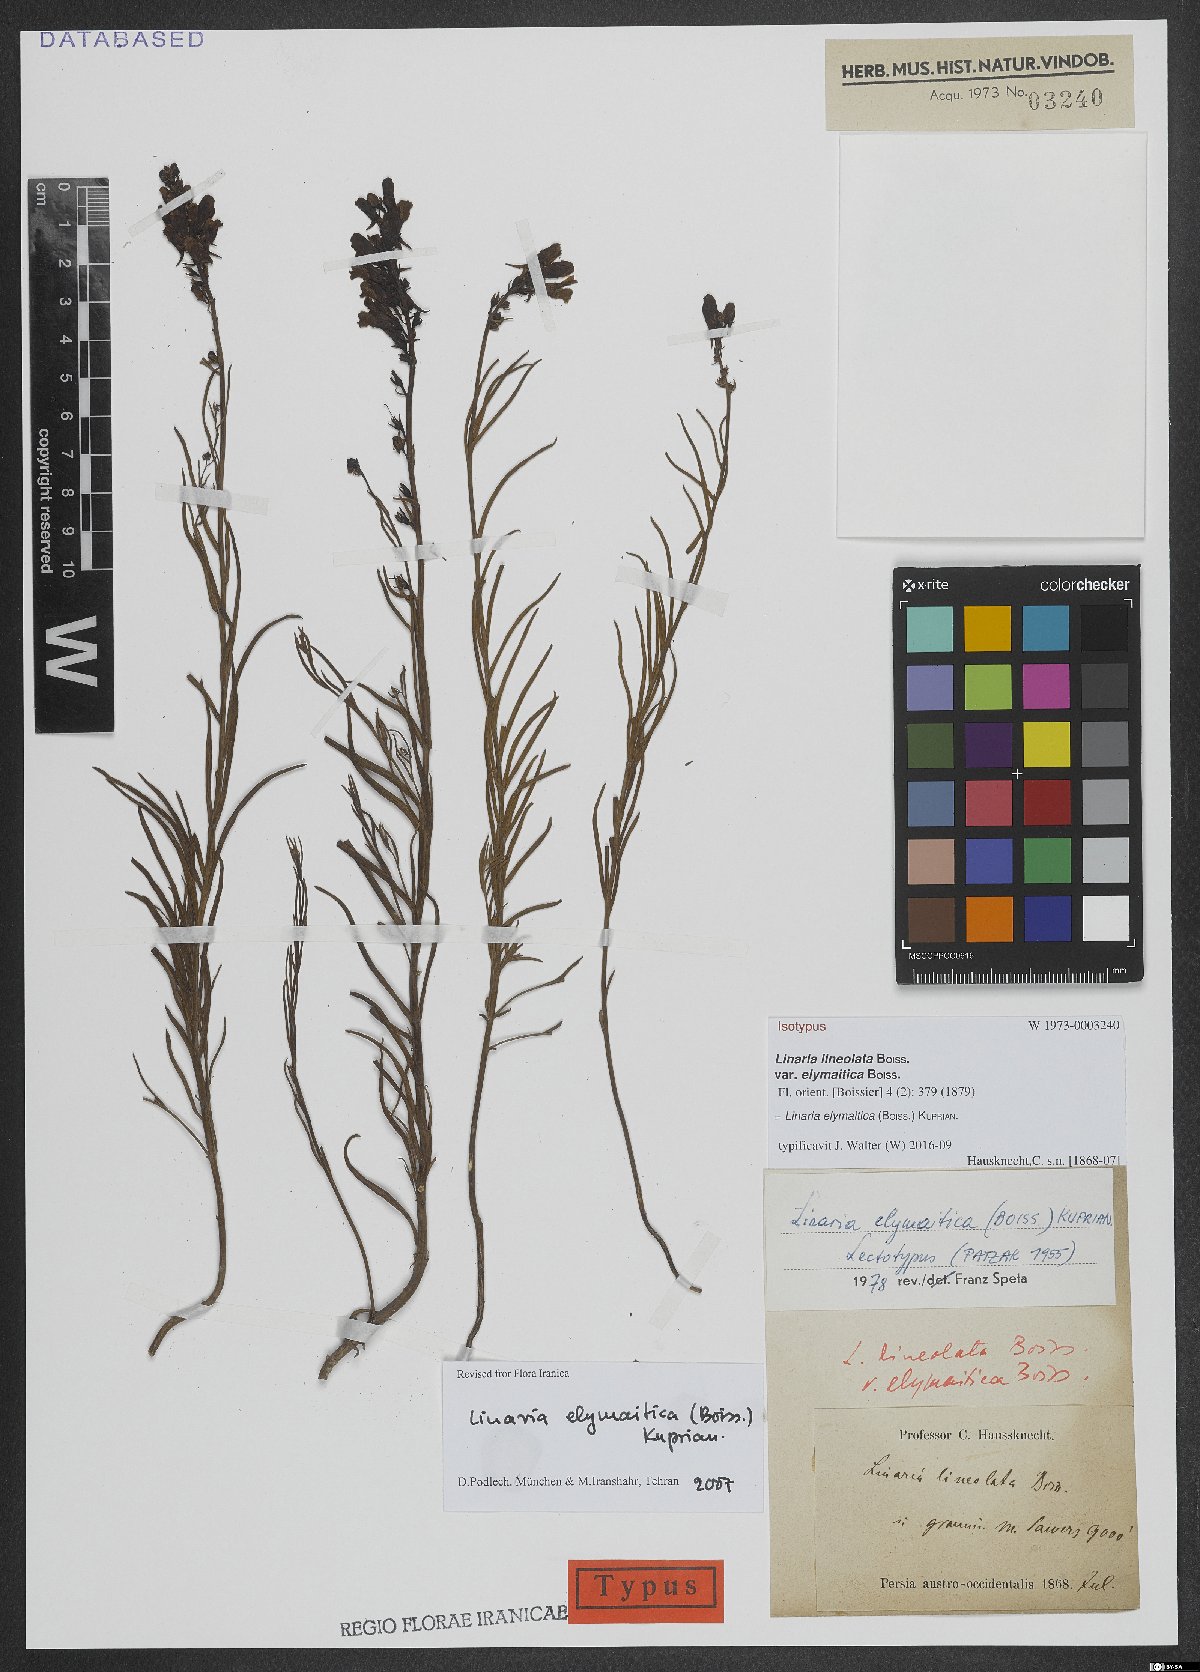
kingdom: Plantae
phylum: Tracheophyta
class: Magnoliopsida
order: Lamiales
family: Plantaginaceae
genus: Linaria
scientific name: Linaria elymaitica
